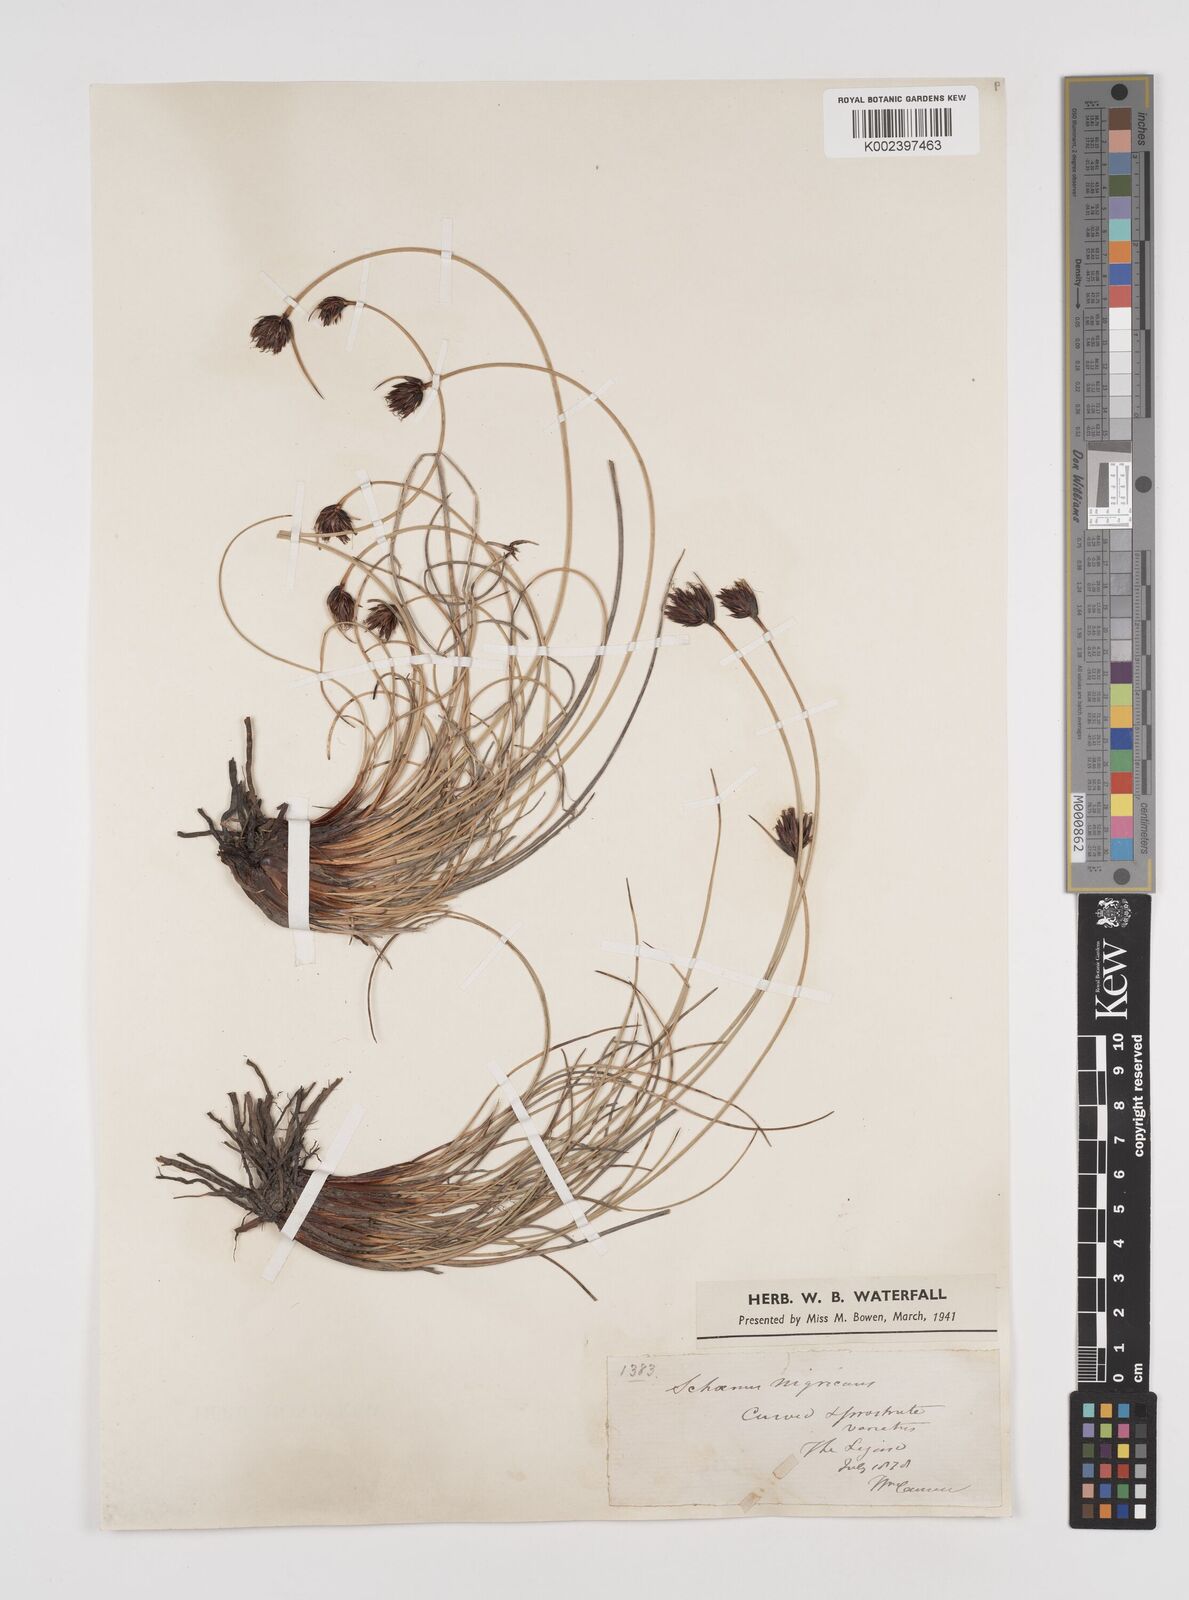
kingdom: Plantae
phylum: Tracheophyta
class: Liliopsida
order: Poales
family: Cyperaceae
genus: Schoenus
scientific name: Schoenus nigricans
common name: Black bog-rush
